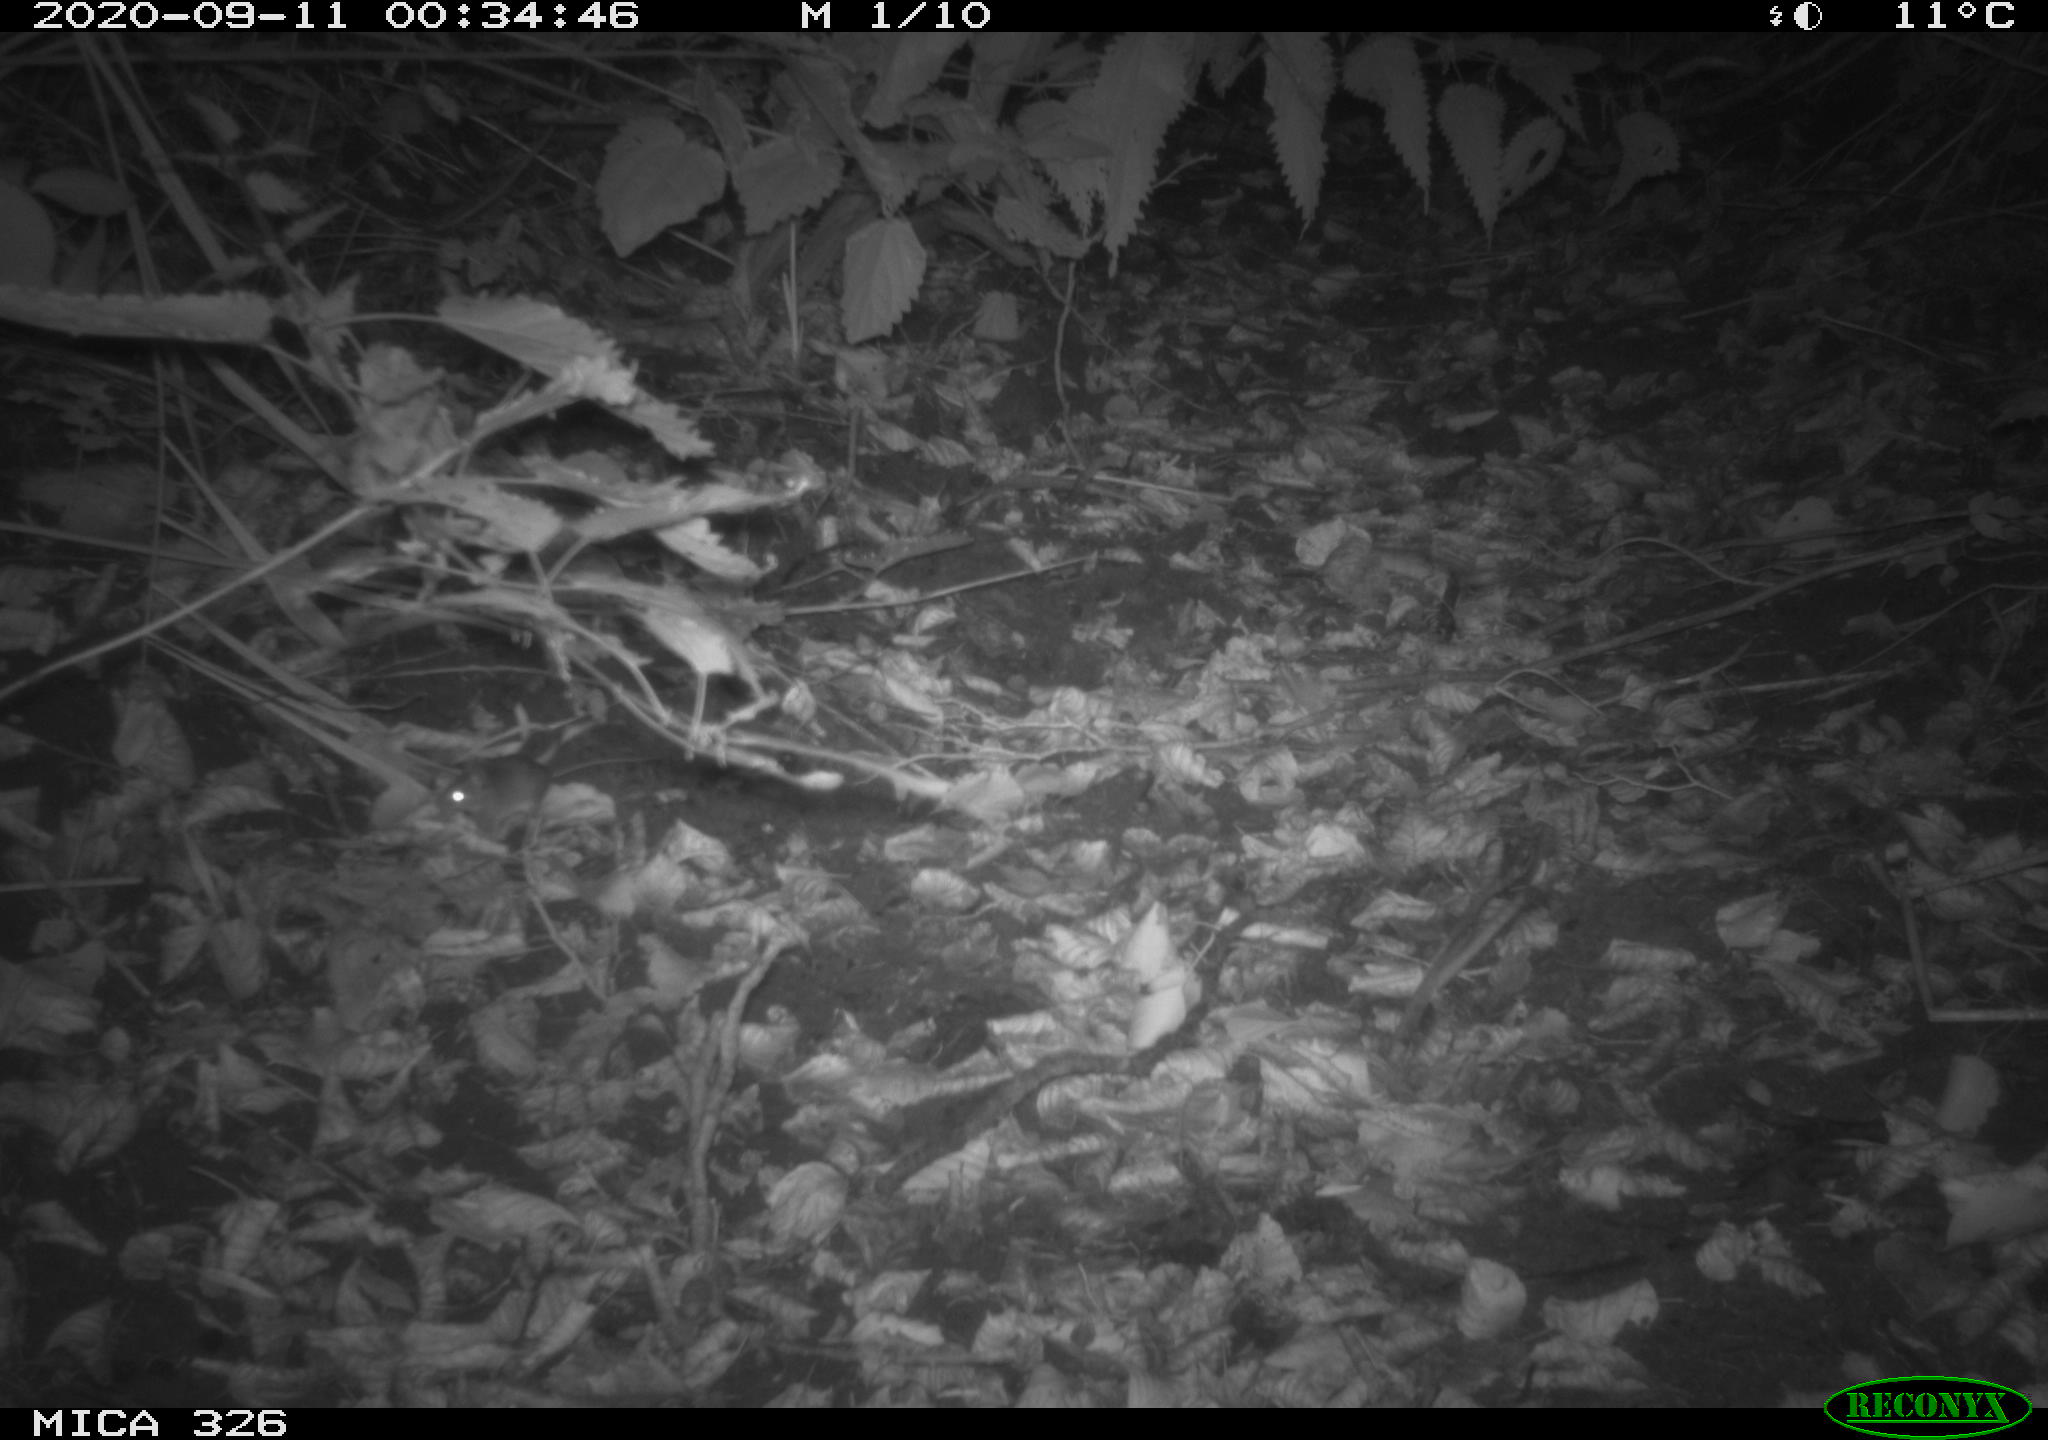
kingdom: Animalia
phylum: Chordata
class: Mammalia
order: Rodentia
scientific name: Rodentia
